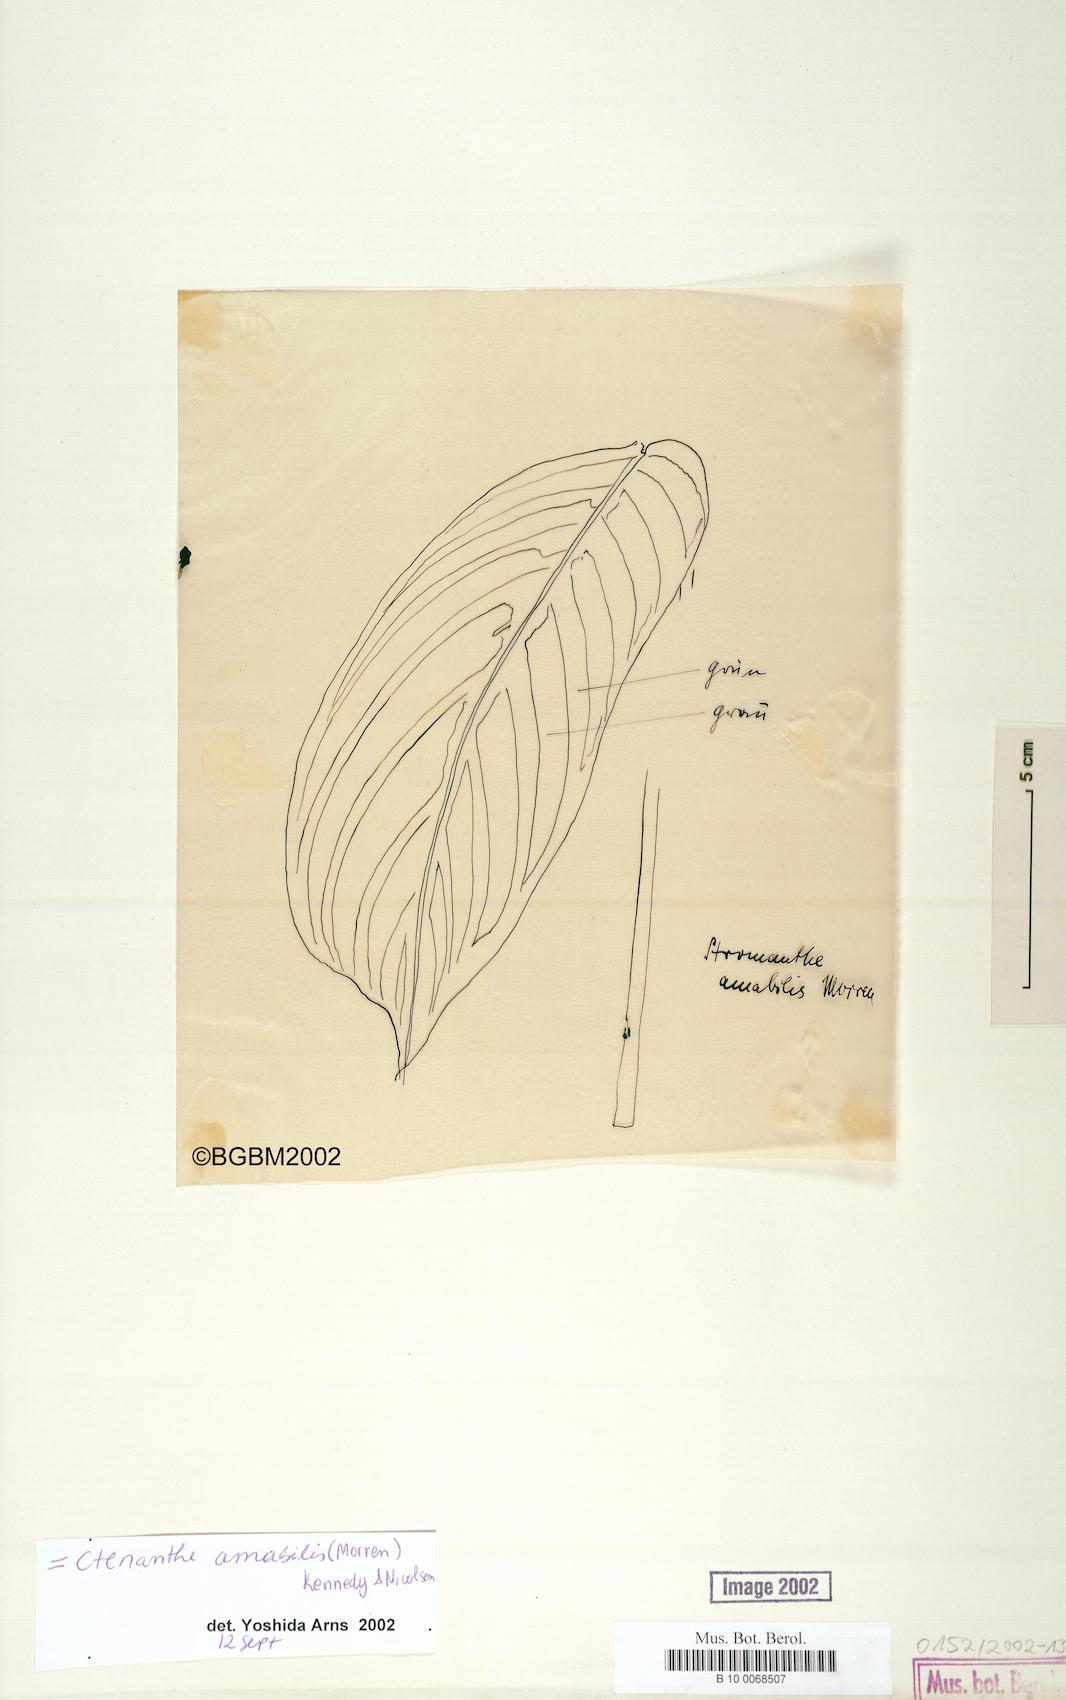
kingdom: Plantae
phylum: Tracheophyta
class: Liliopsida
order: Zingiberales
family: Marantaceae
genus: Ctenanthe
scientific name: Ctenanthe amabilis
